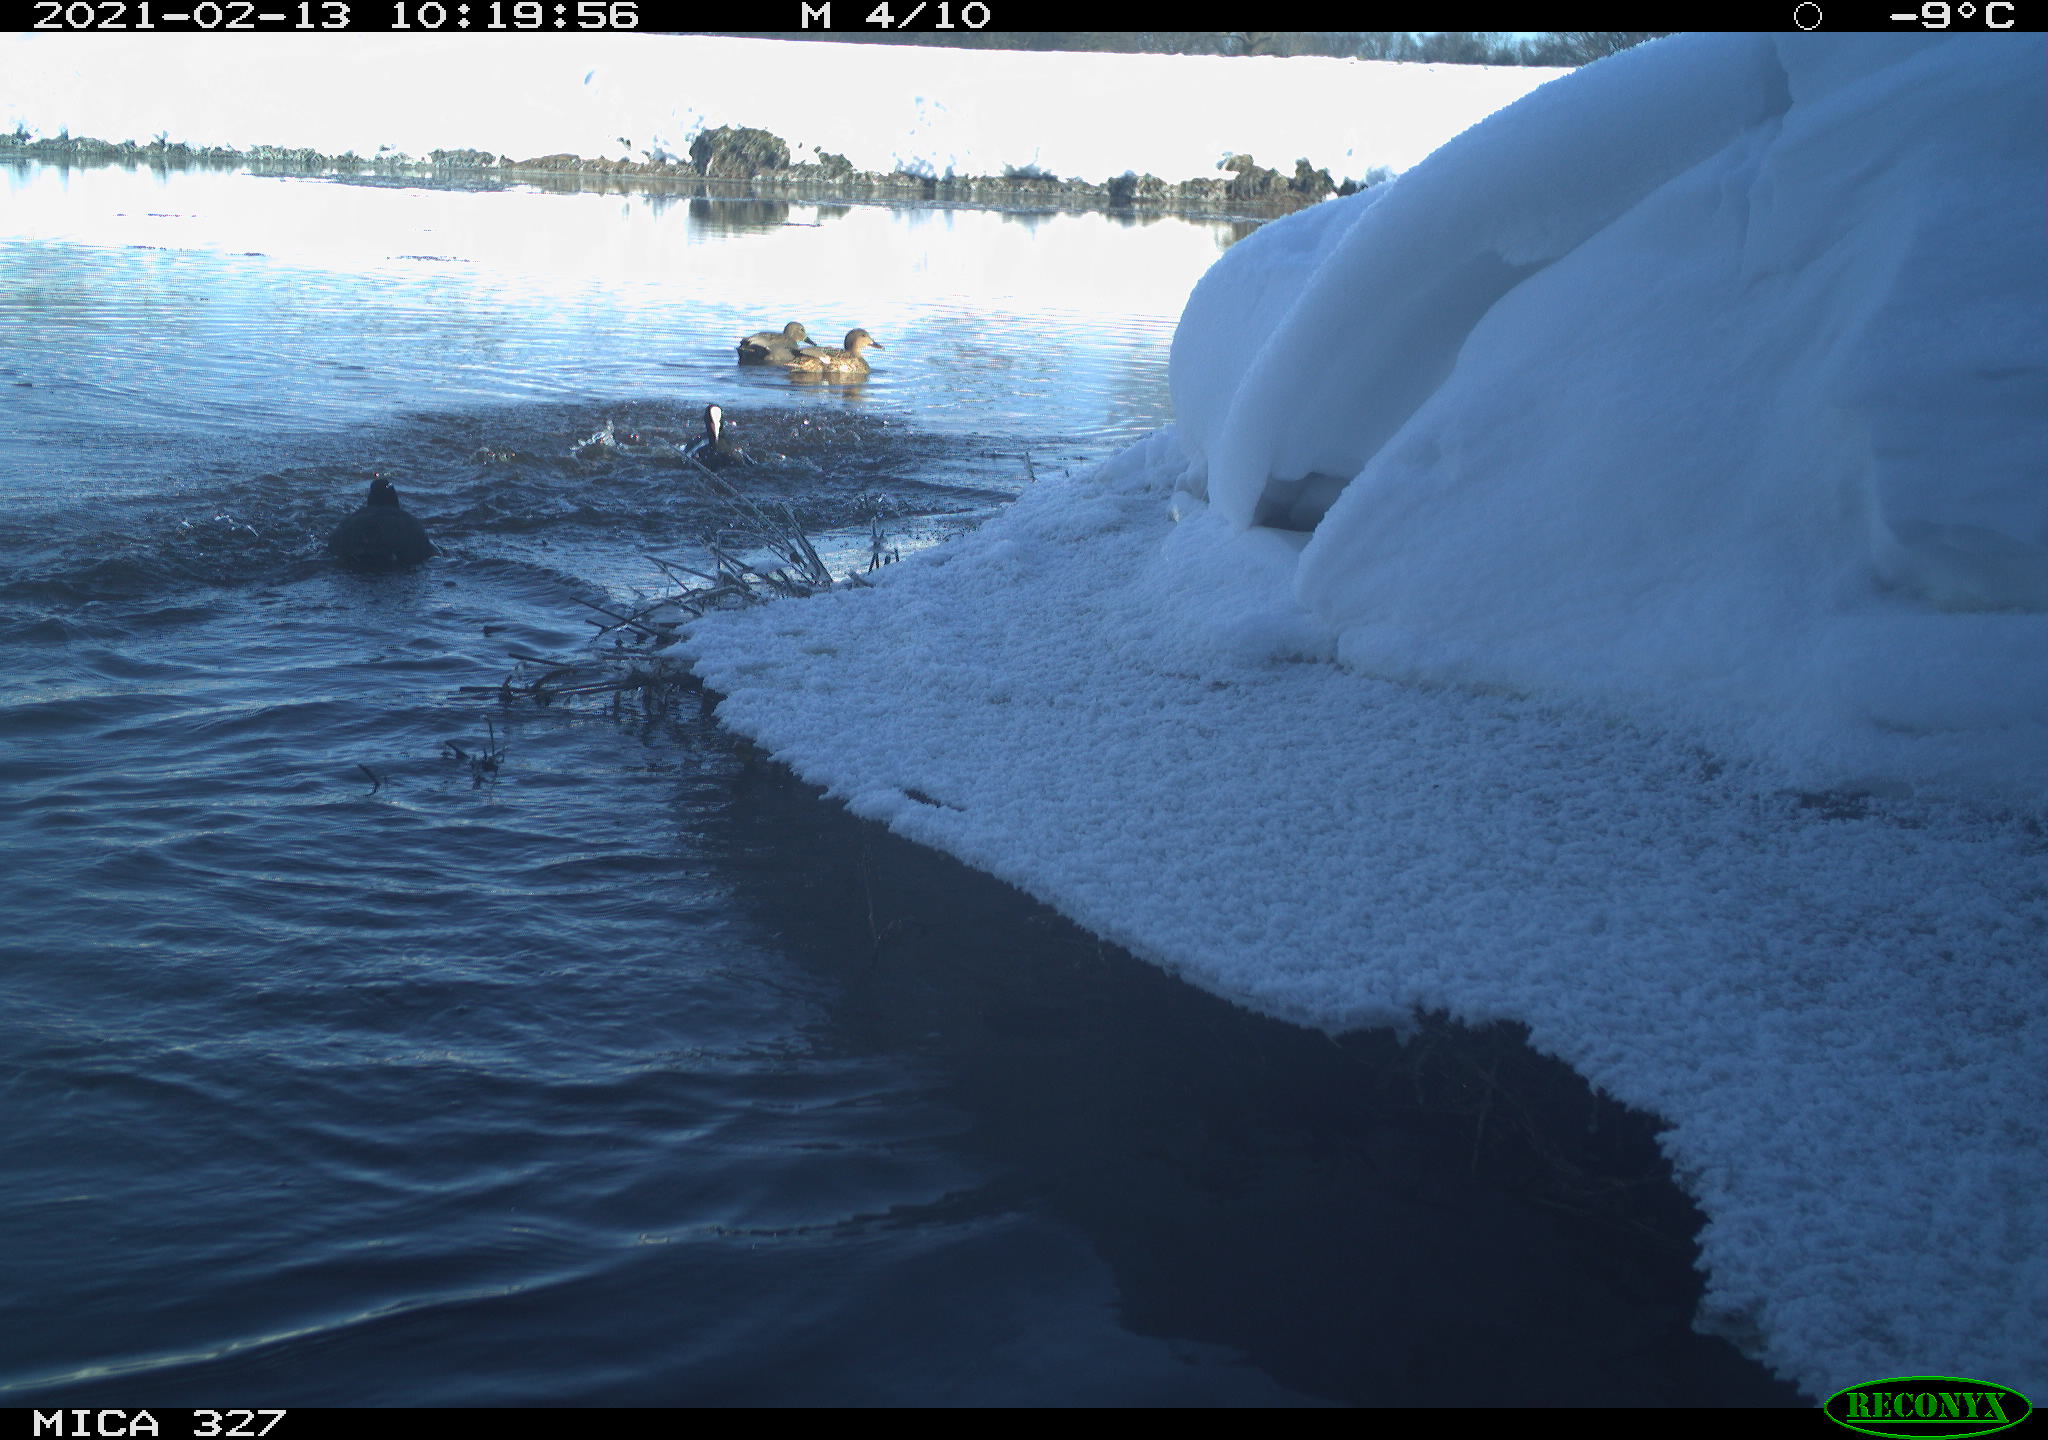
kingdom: Animalia
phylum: Chordata
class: Aves
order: Gruiformes
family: Rallidae
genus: Fulica
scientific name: Fulica atra
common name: Eurasian coot
